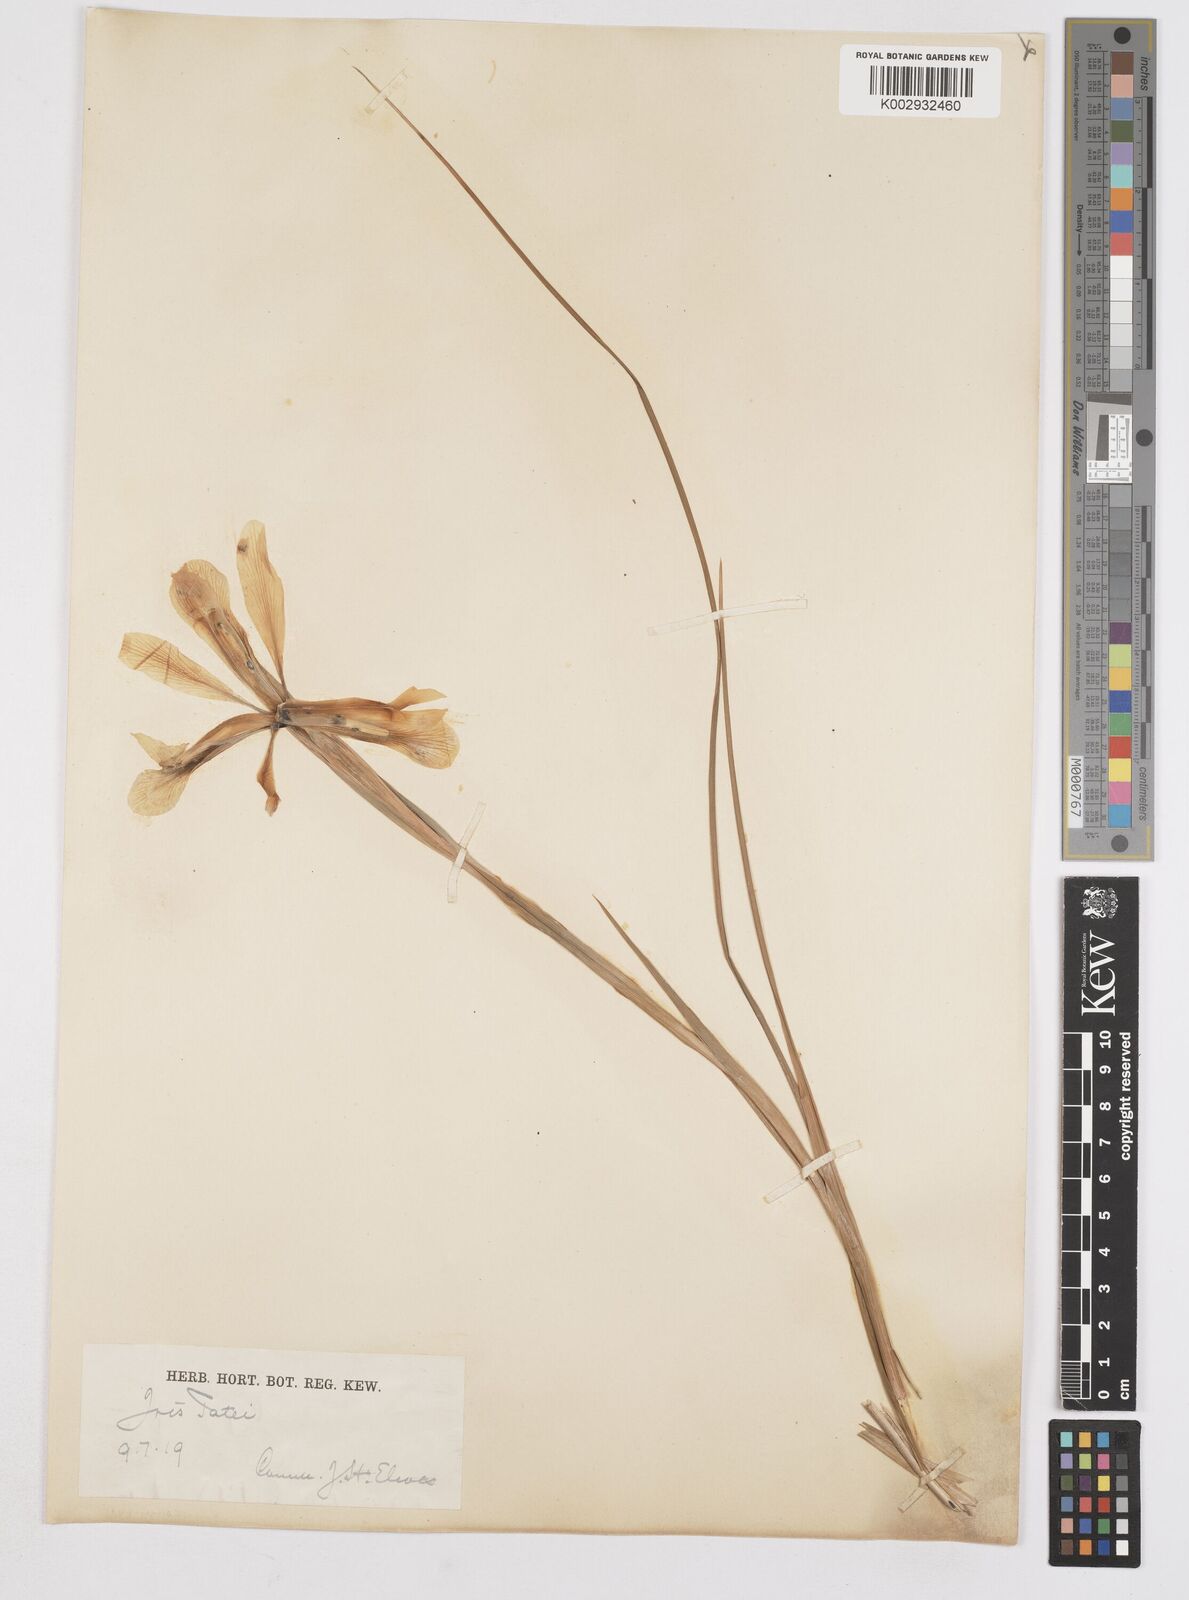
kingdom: Plantae
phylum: Tracheophyta
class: Liliopsida
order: Asparagales
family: Iridaceae
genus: Iris
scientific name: Iris xiphium
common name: Spanish iris
